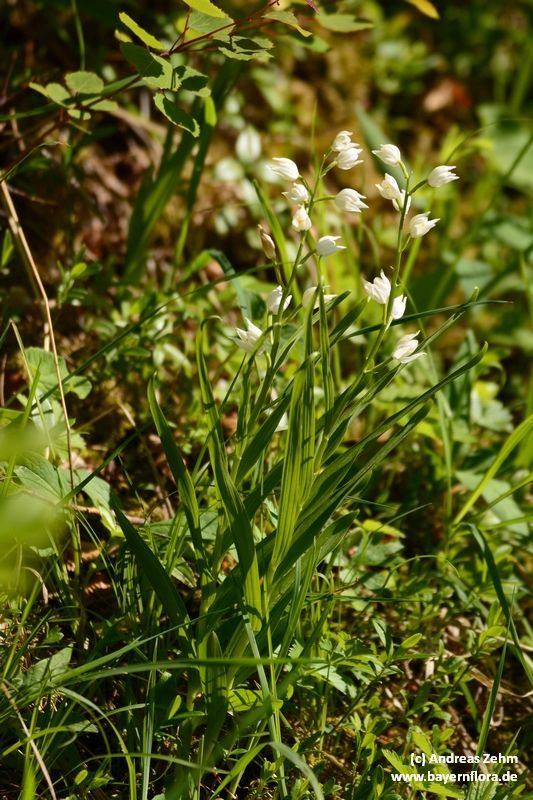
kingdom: Plantae
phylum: Tracheophyta
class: Liliopsida
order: Asparagales
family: Orchidaceae
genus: Cephalanthera
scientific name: Cephalanthera longifolia
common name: Narrow-leaved helleborine
